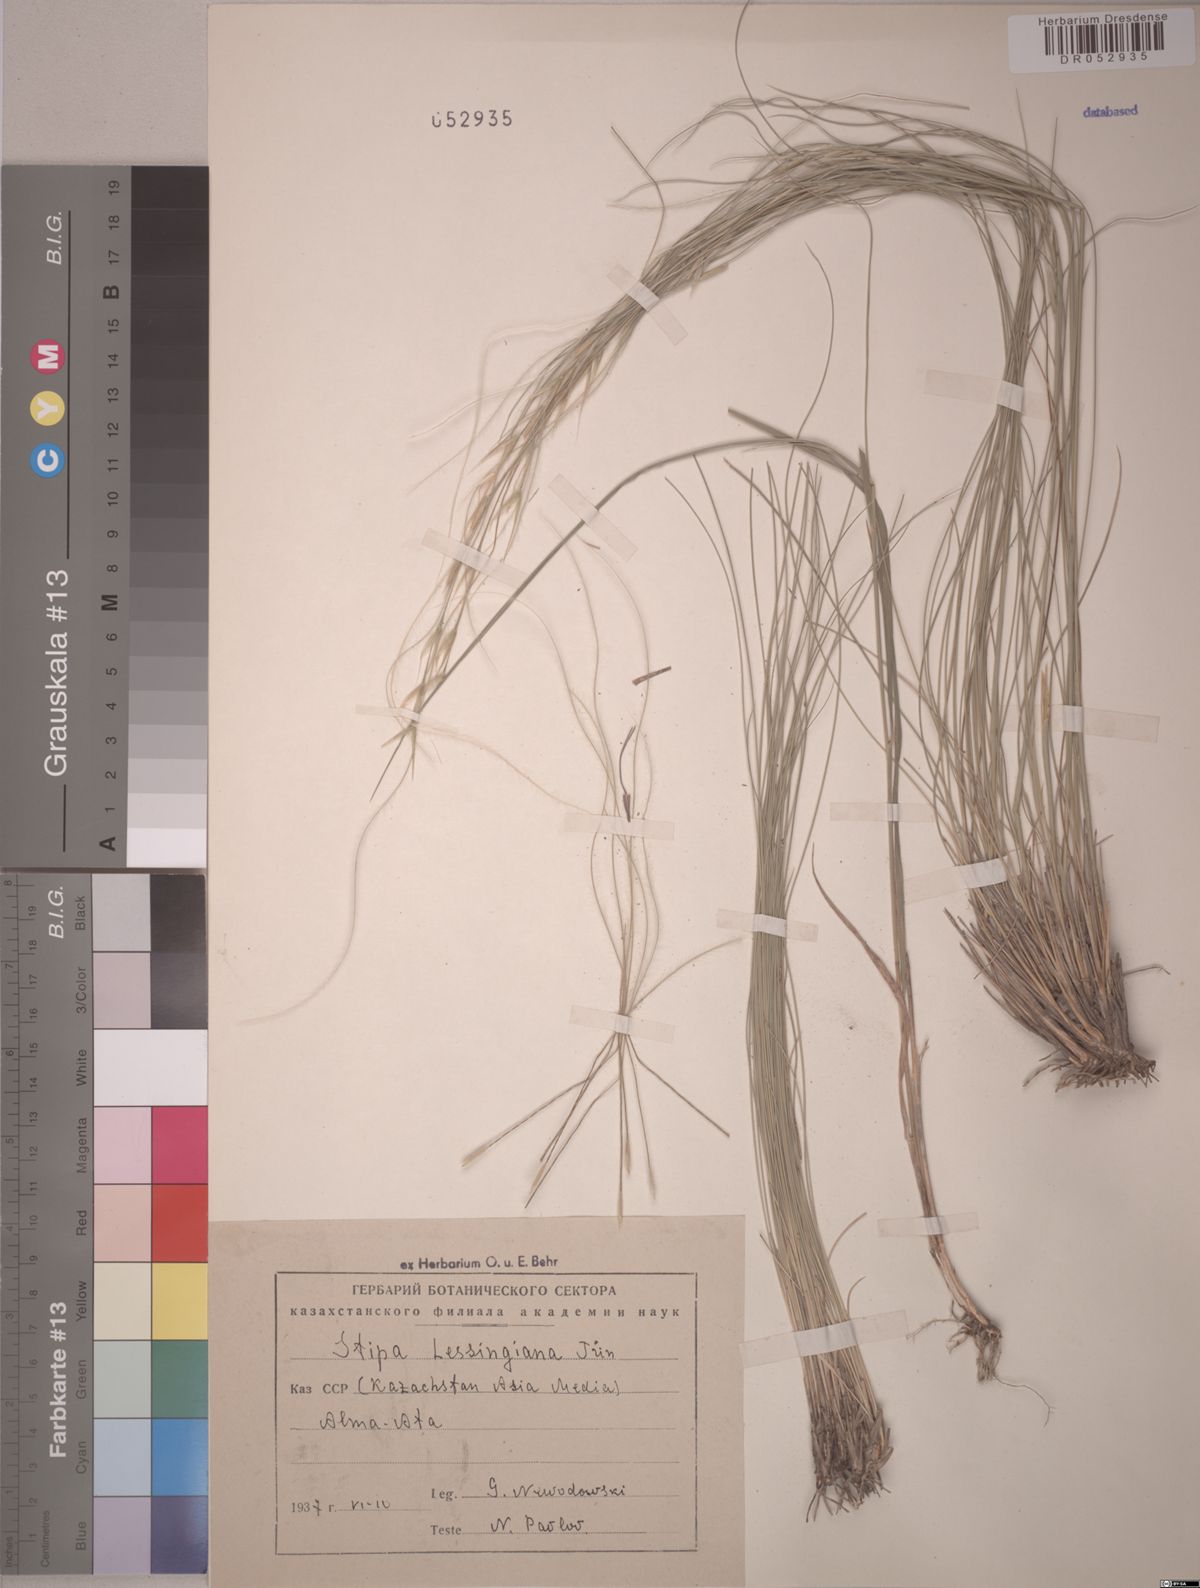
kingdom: Plantae
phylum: Tracheophyta
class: Liliopsida
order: Poales
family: Poaceae
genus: Stipa
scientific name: Stipa lessingiana
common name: Needle grass
